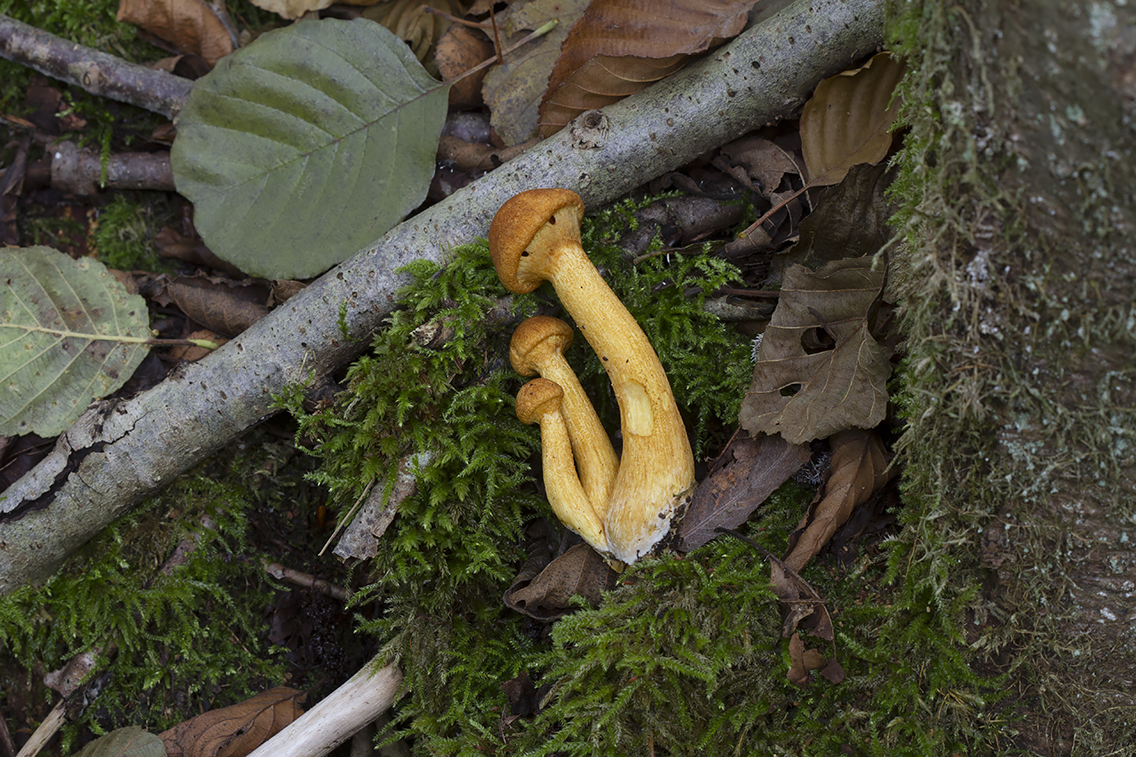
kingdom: Fungi
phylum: Basidiomycota
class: Agaricomycetes
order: Agaricales
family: Hymenogastraceae
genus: Gymnopilus
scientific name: Gymnopilus spectabilis
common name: fibret flammehat
